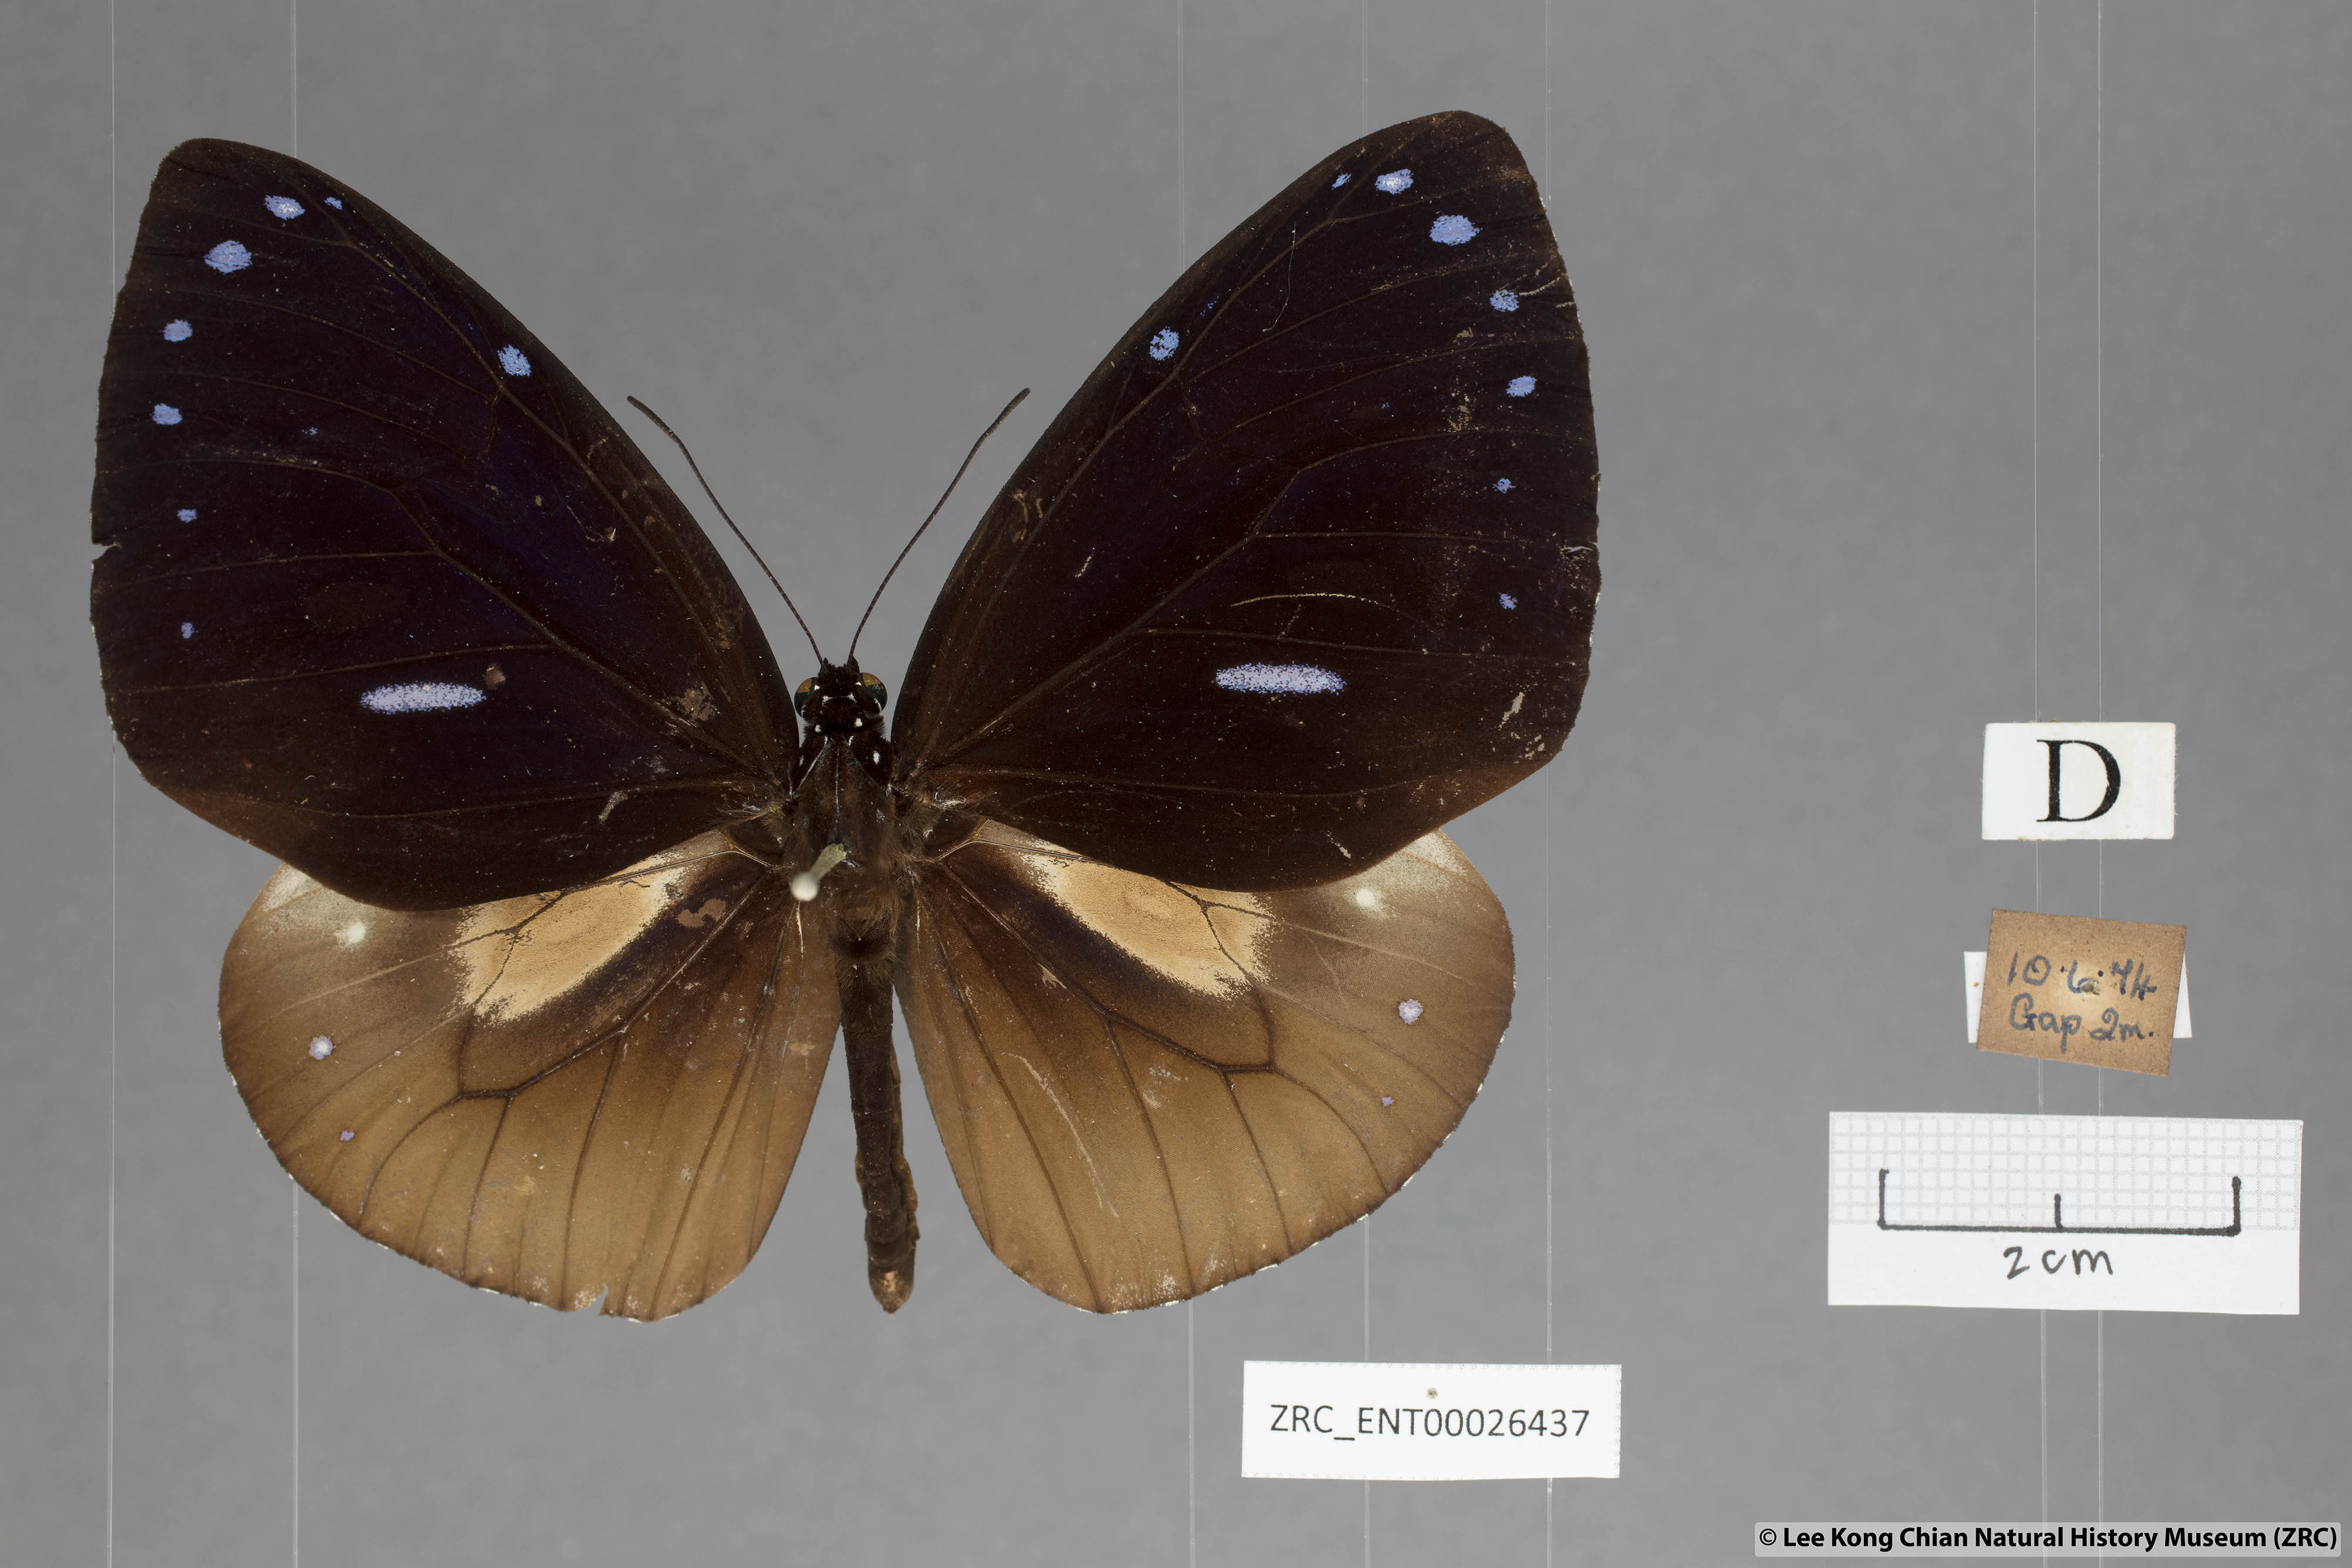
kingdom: Animalia
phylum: Arthropoda
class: Insecta
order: Lepidoptera
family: Nymphalidae
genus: Euploea
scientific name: Euploea eunice
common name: Blue-banded king crow butterfly
